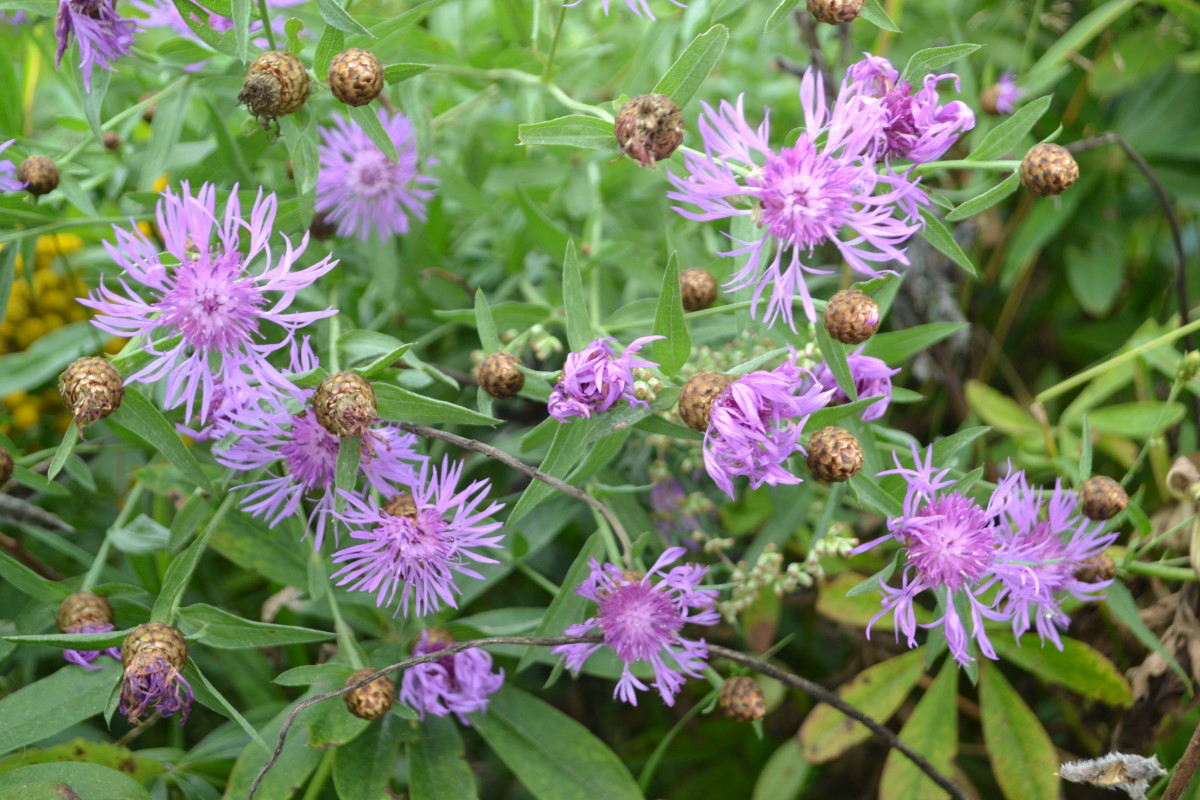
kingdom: Plantae
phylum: Tracheophyta
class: Magnoliopsida
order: Asterales
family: Asteraceae
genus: Centaurea
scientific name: Centaurea jacea
